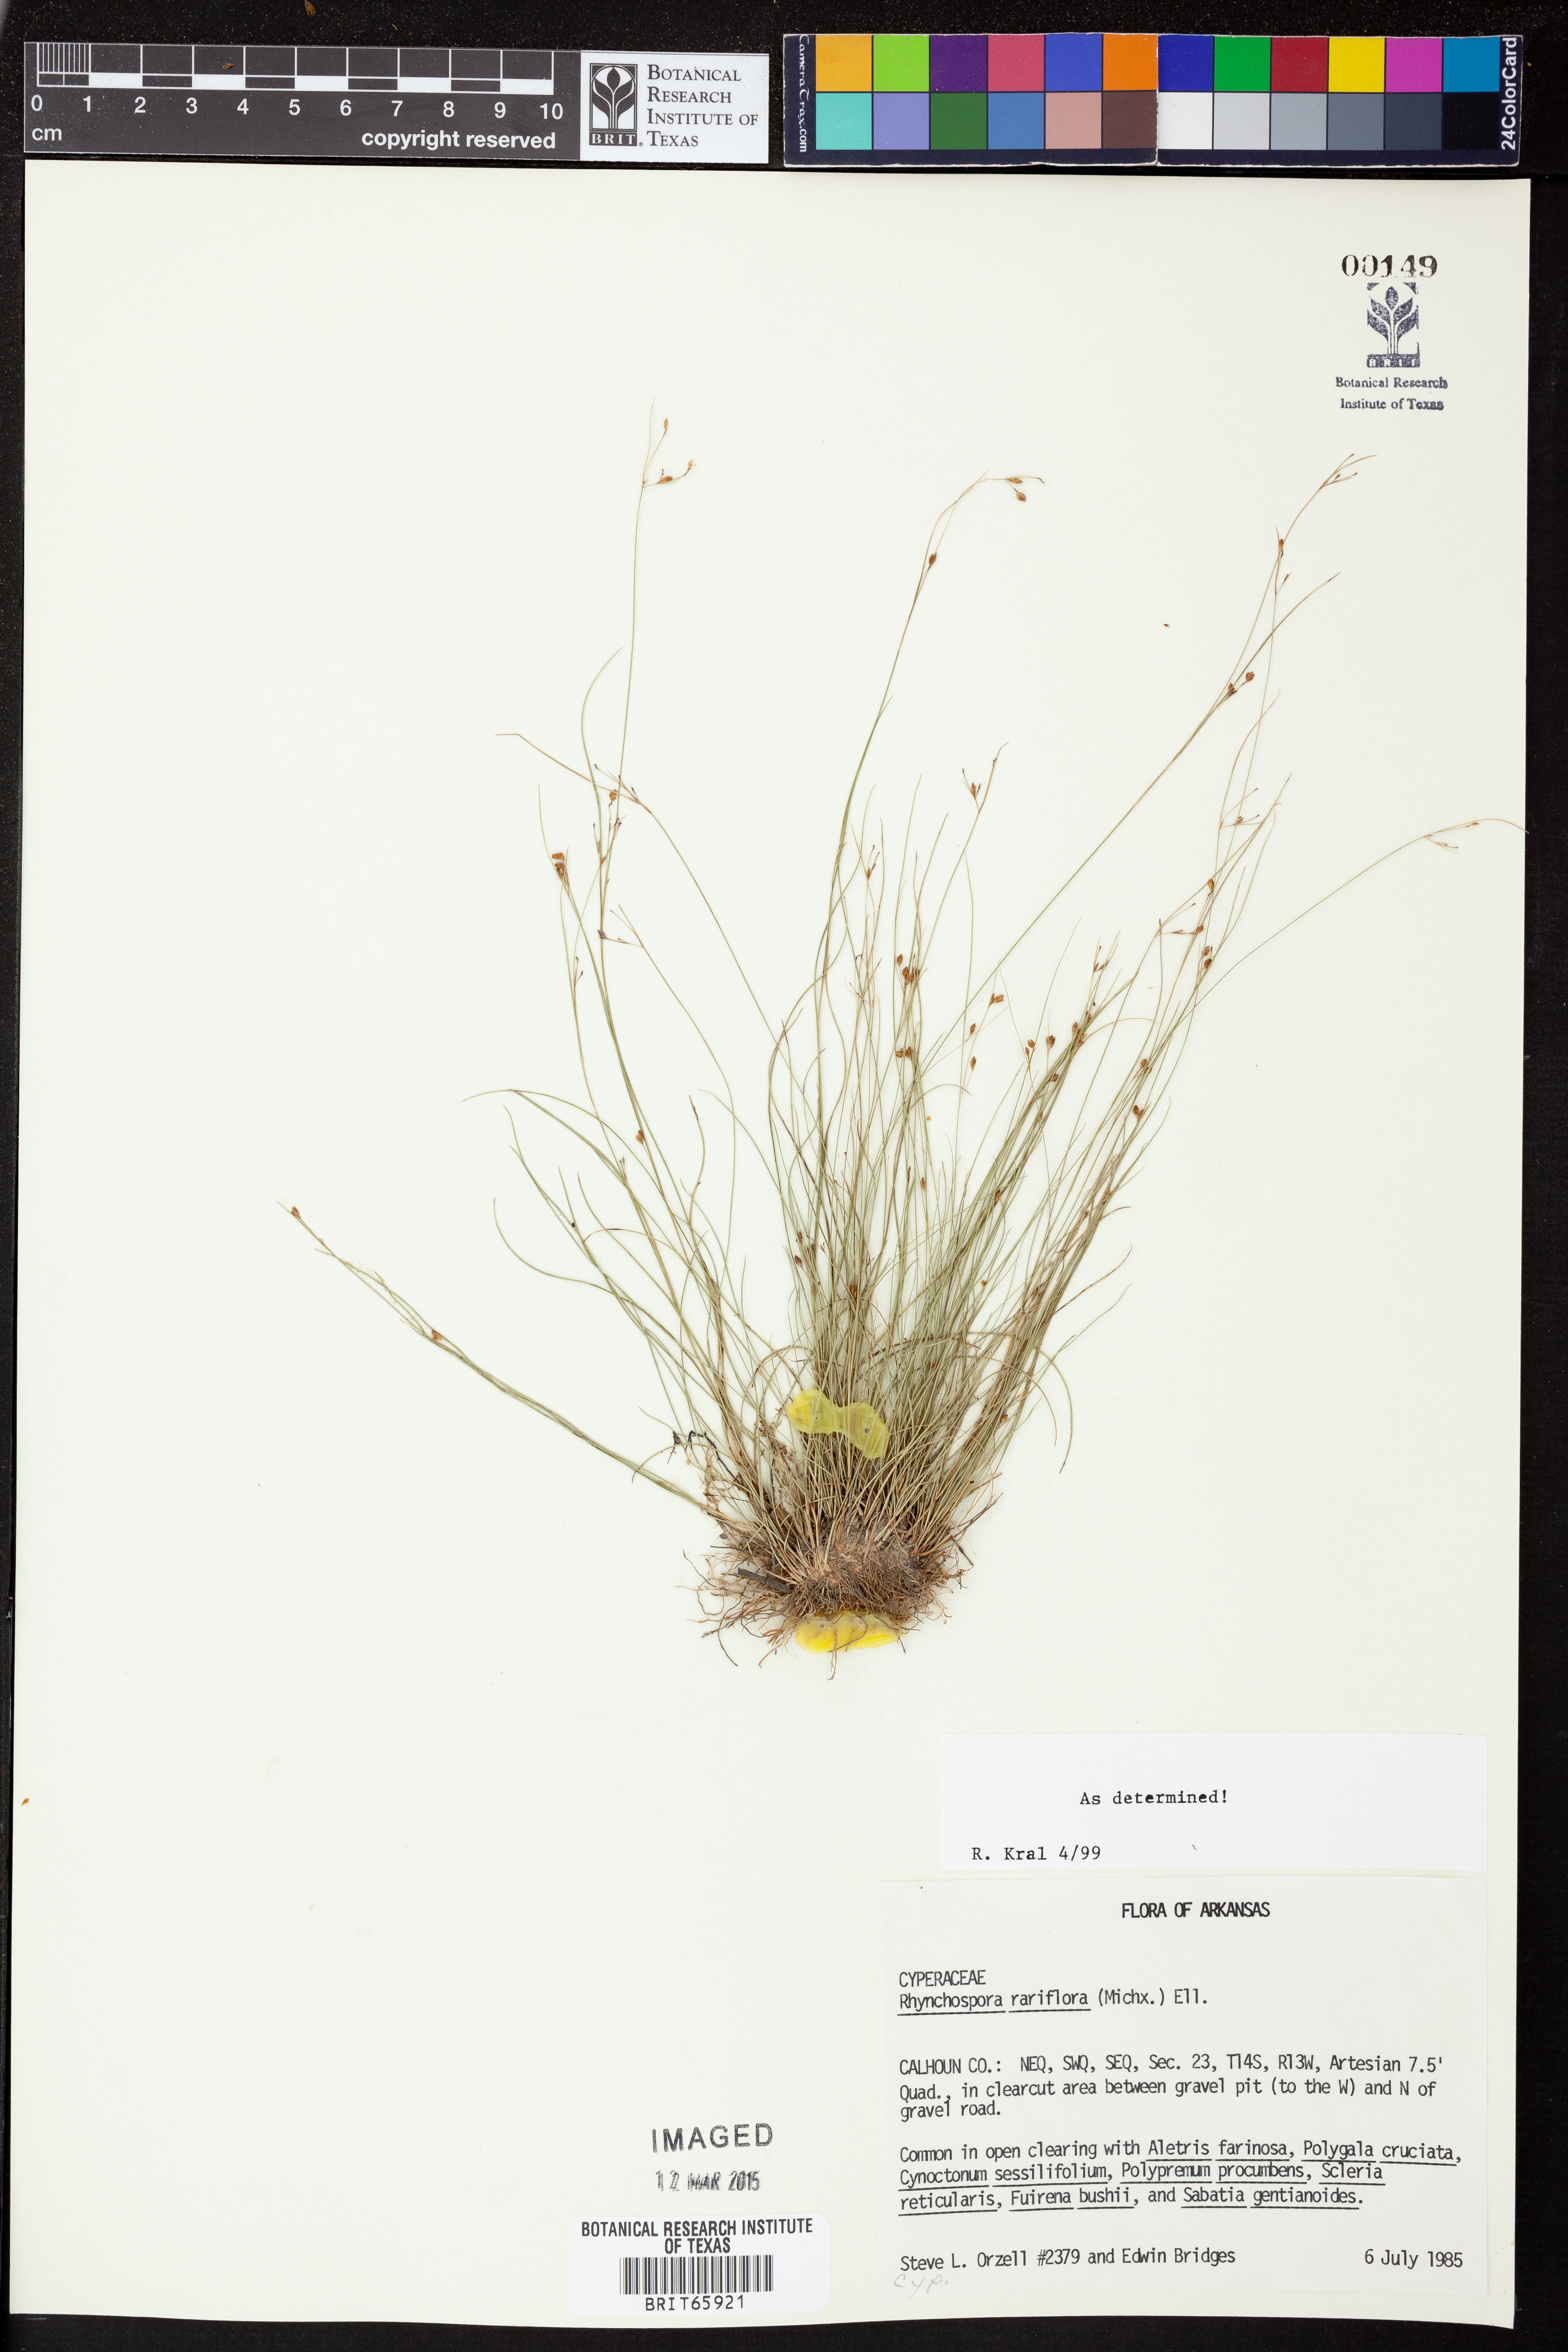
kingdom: Plantae
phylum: Tracheophyta
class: Liliopsida
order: Poales
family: Cyperaceae
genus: Rhynchospora
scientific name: Rhynchospora rariflora
